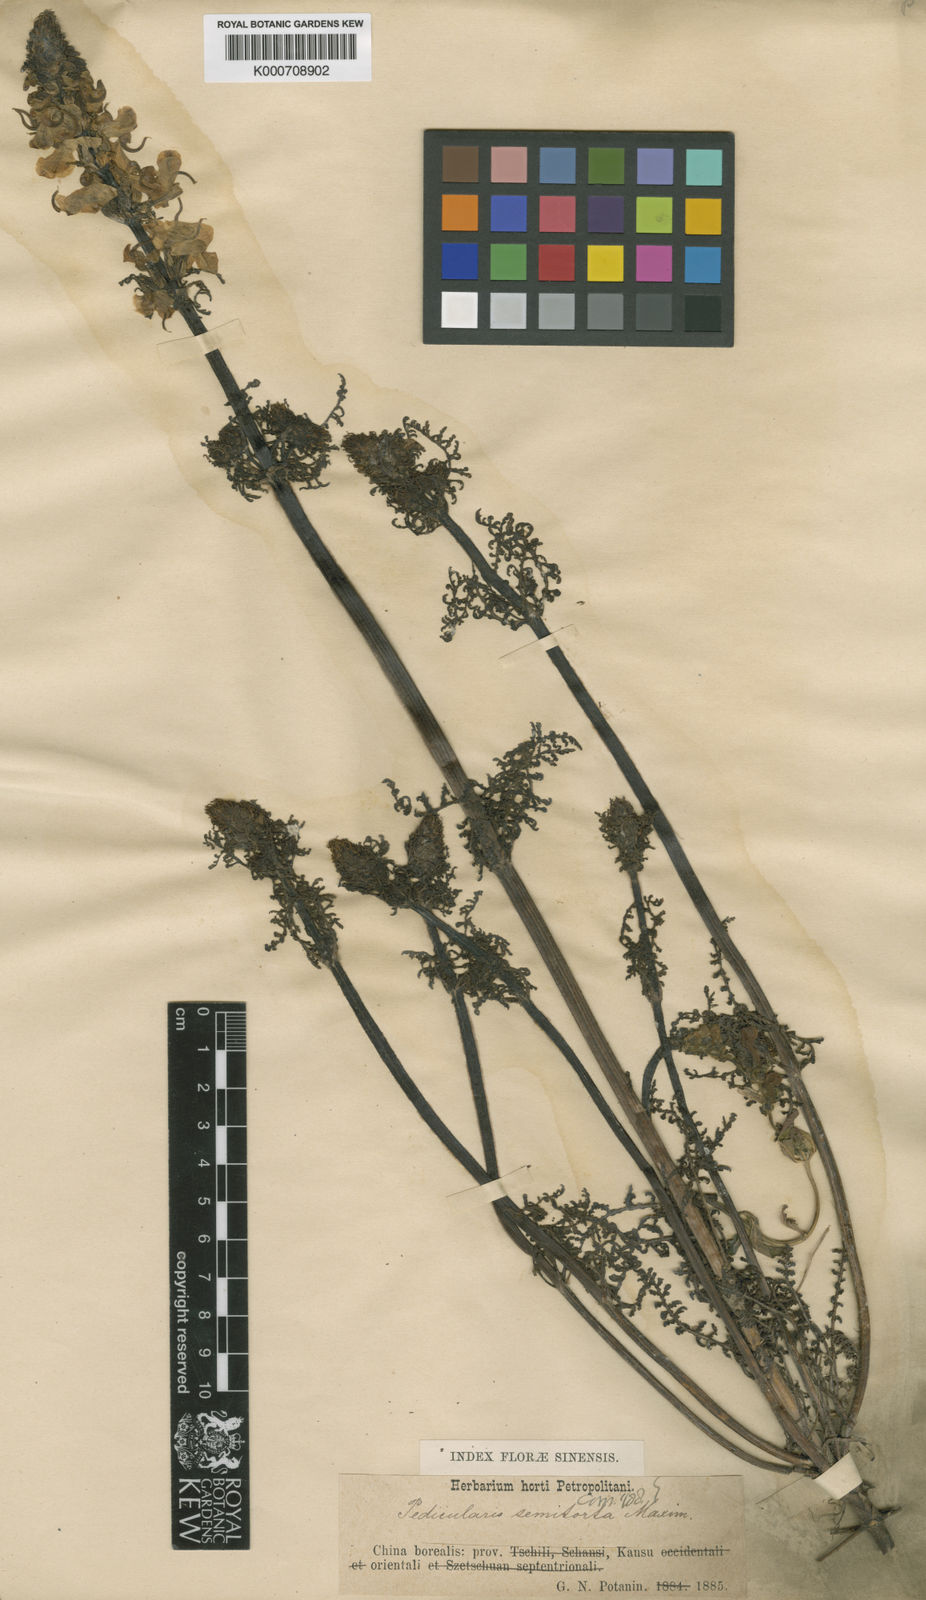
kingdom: Plantae
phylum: Tracheophyta
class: Magnoliopsida
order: Lamiales
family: Orobanchaceae
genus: Pedicularis
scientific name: Pedicularis semitorta
